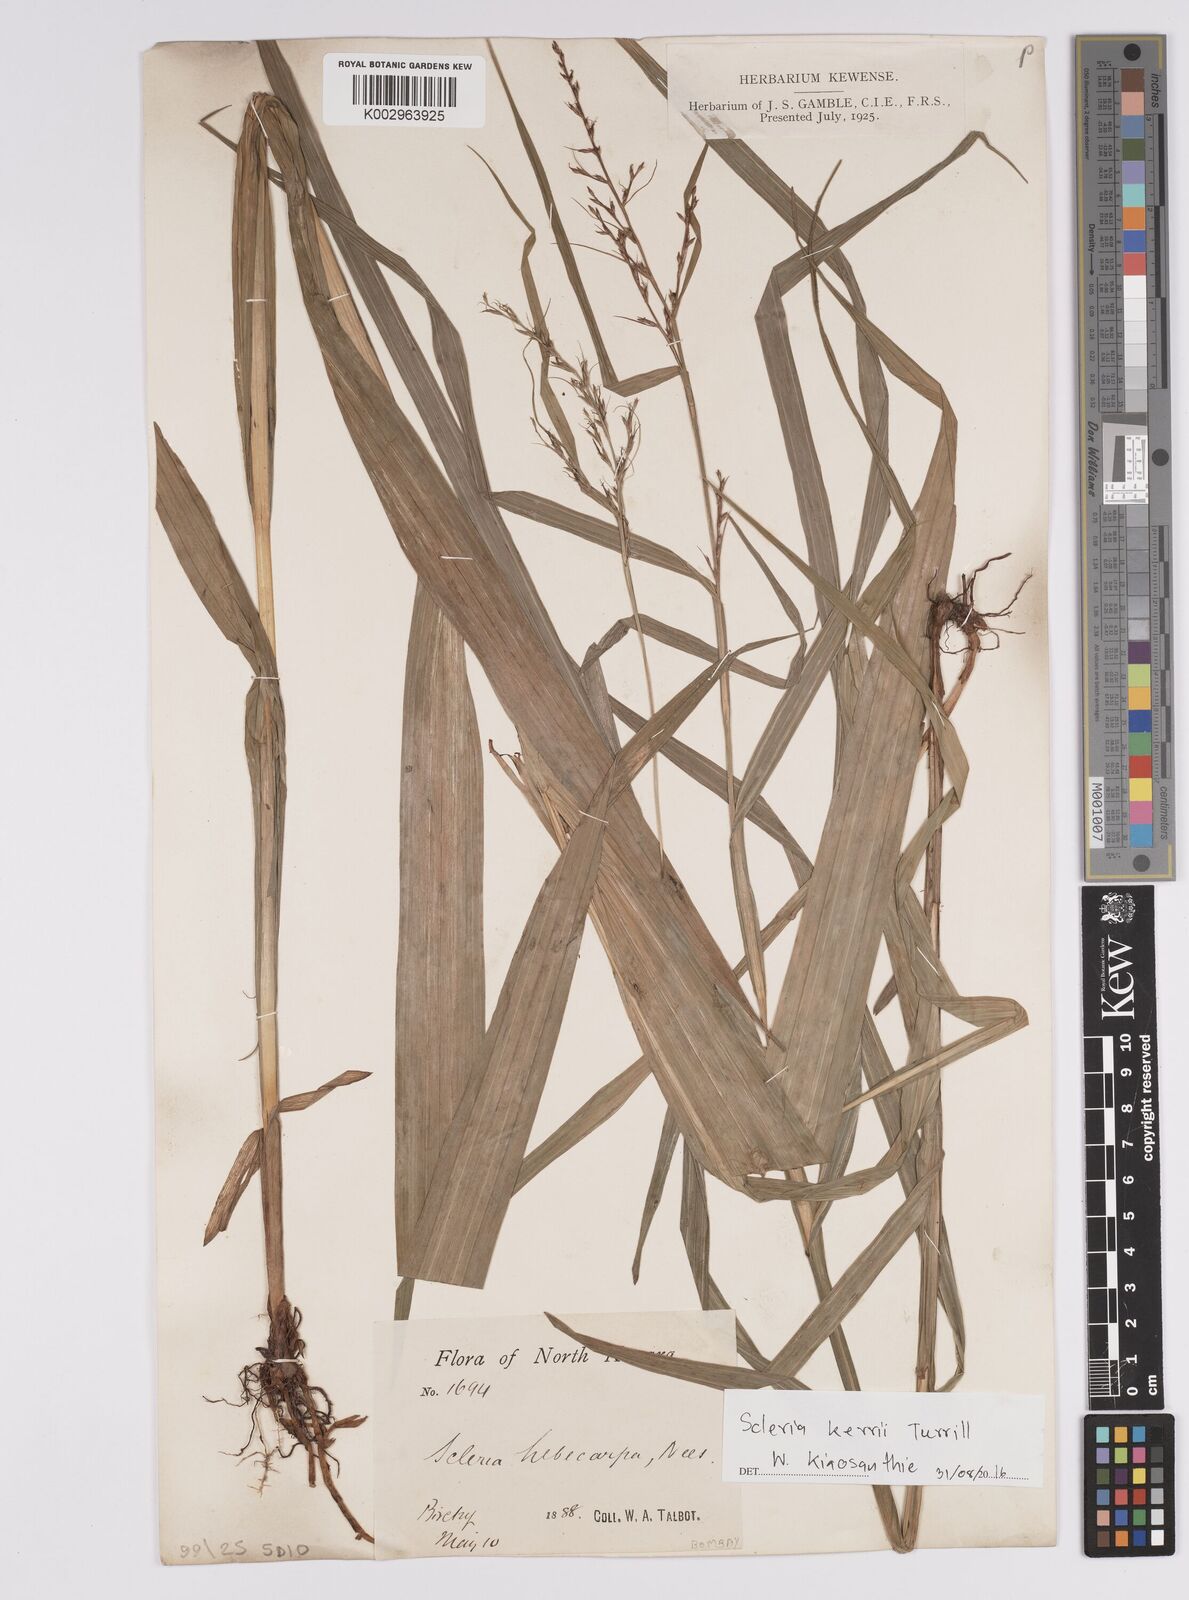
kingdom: Plantae
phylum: Tracheophyta
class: Liliopsida
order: Poales
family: Cyperaceae
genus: Scleria
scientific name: Scleria kerrii
